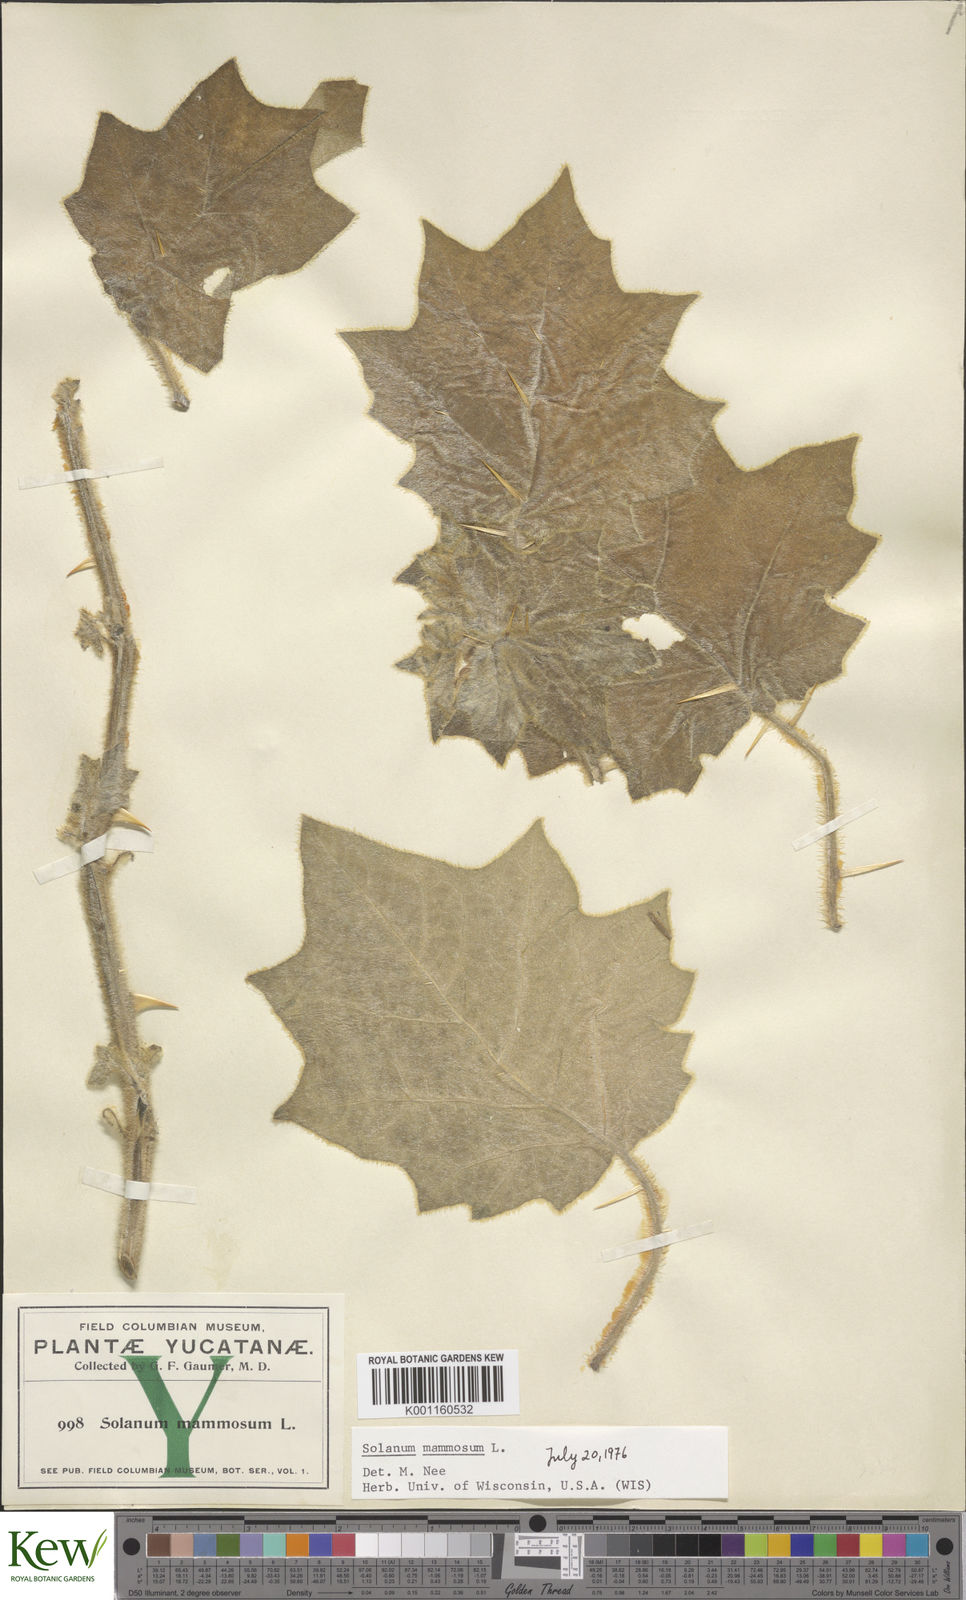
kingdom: Plantae
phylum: Tracheophyta
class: Magnoliopsida
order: Solanales
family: Solanaceae
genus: Solanum
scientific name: Solanum mammosum
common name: Nipple fruit
